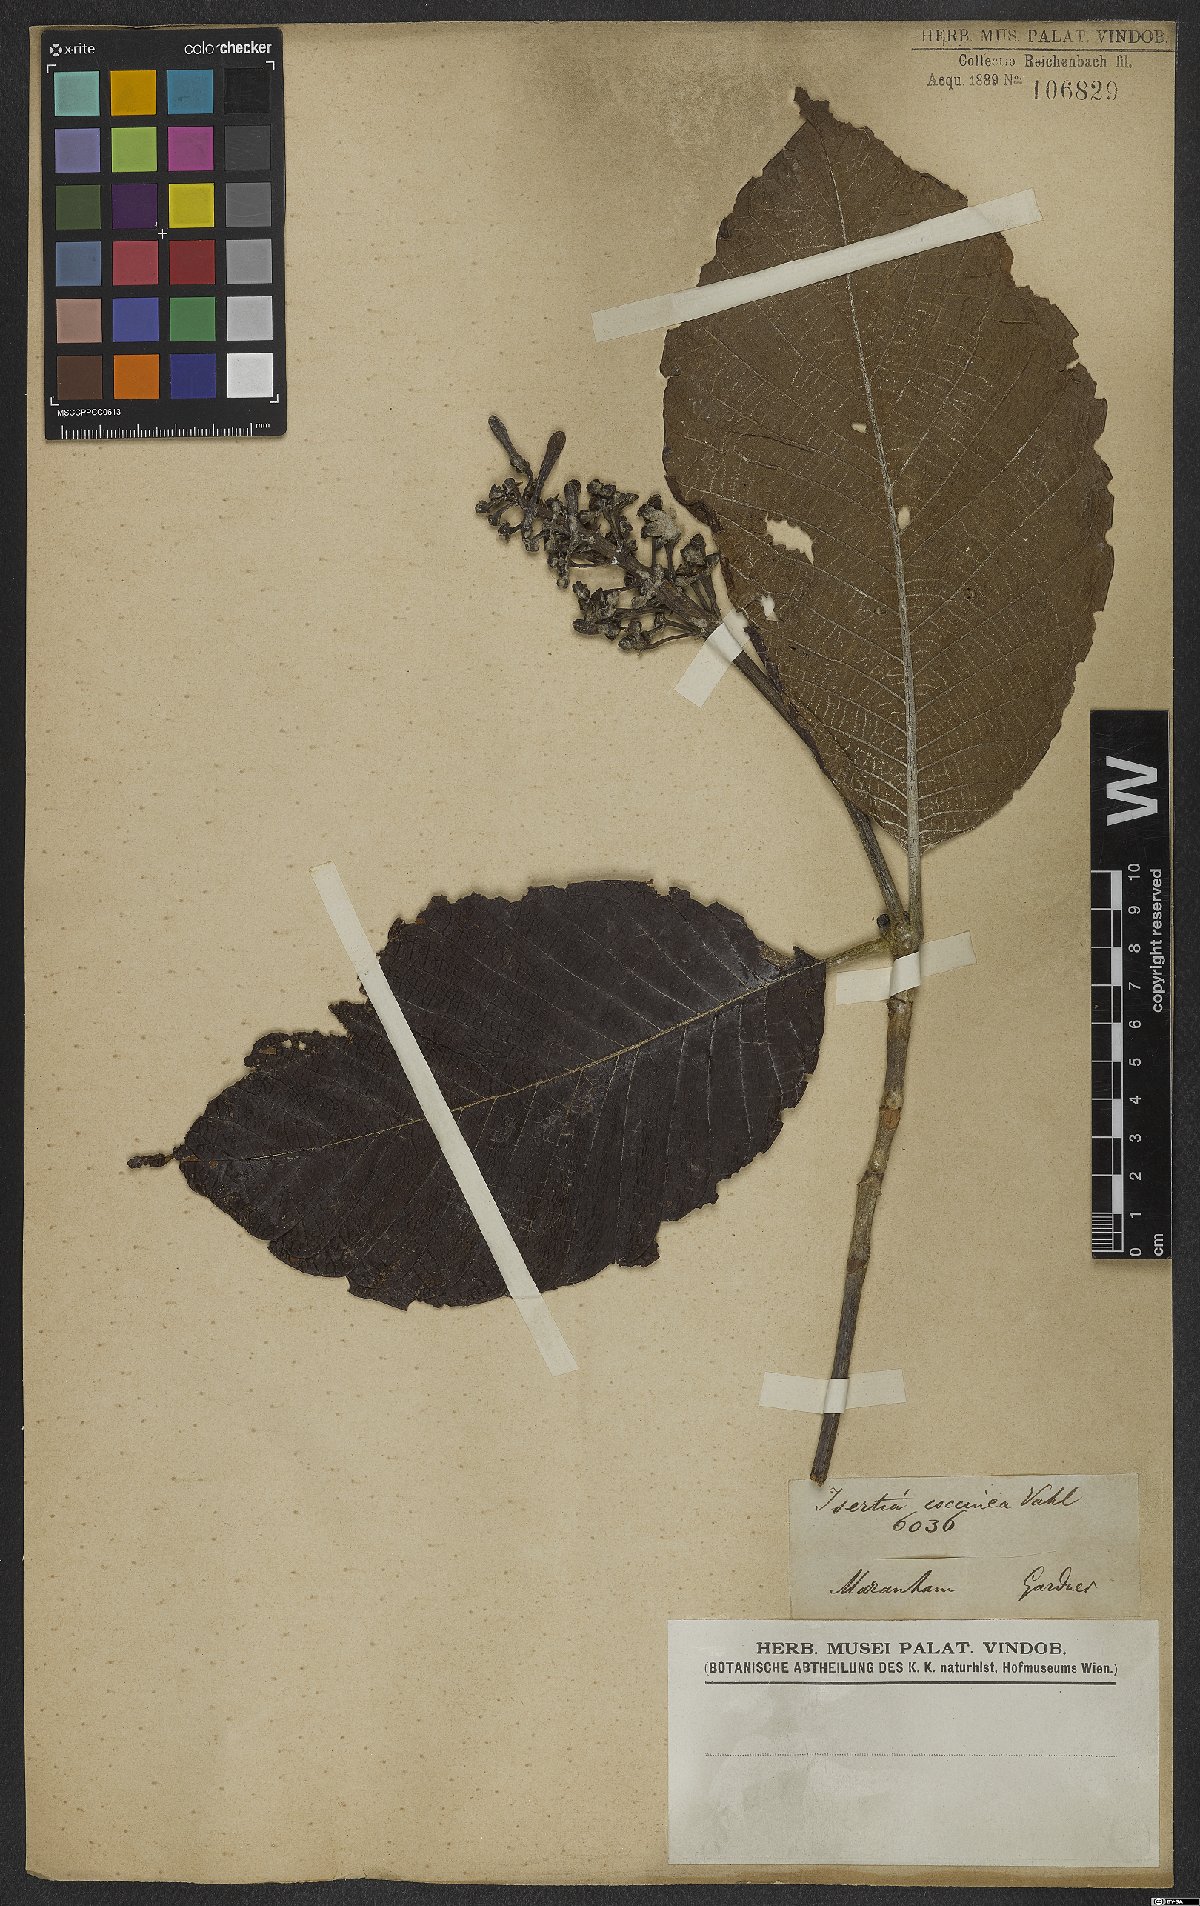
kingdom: Plantae
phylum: Tracheophyta
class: Magnoliopsida
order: Gentianales
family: Rubiaceae
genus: Isertia
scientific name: Isertia coccinea
